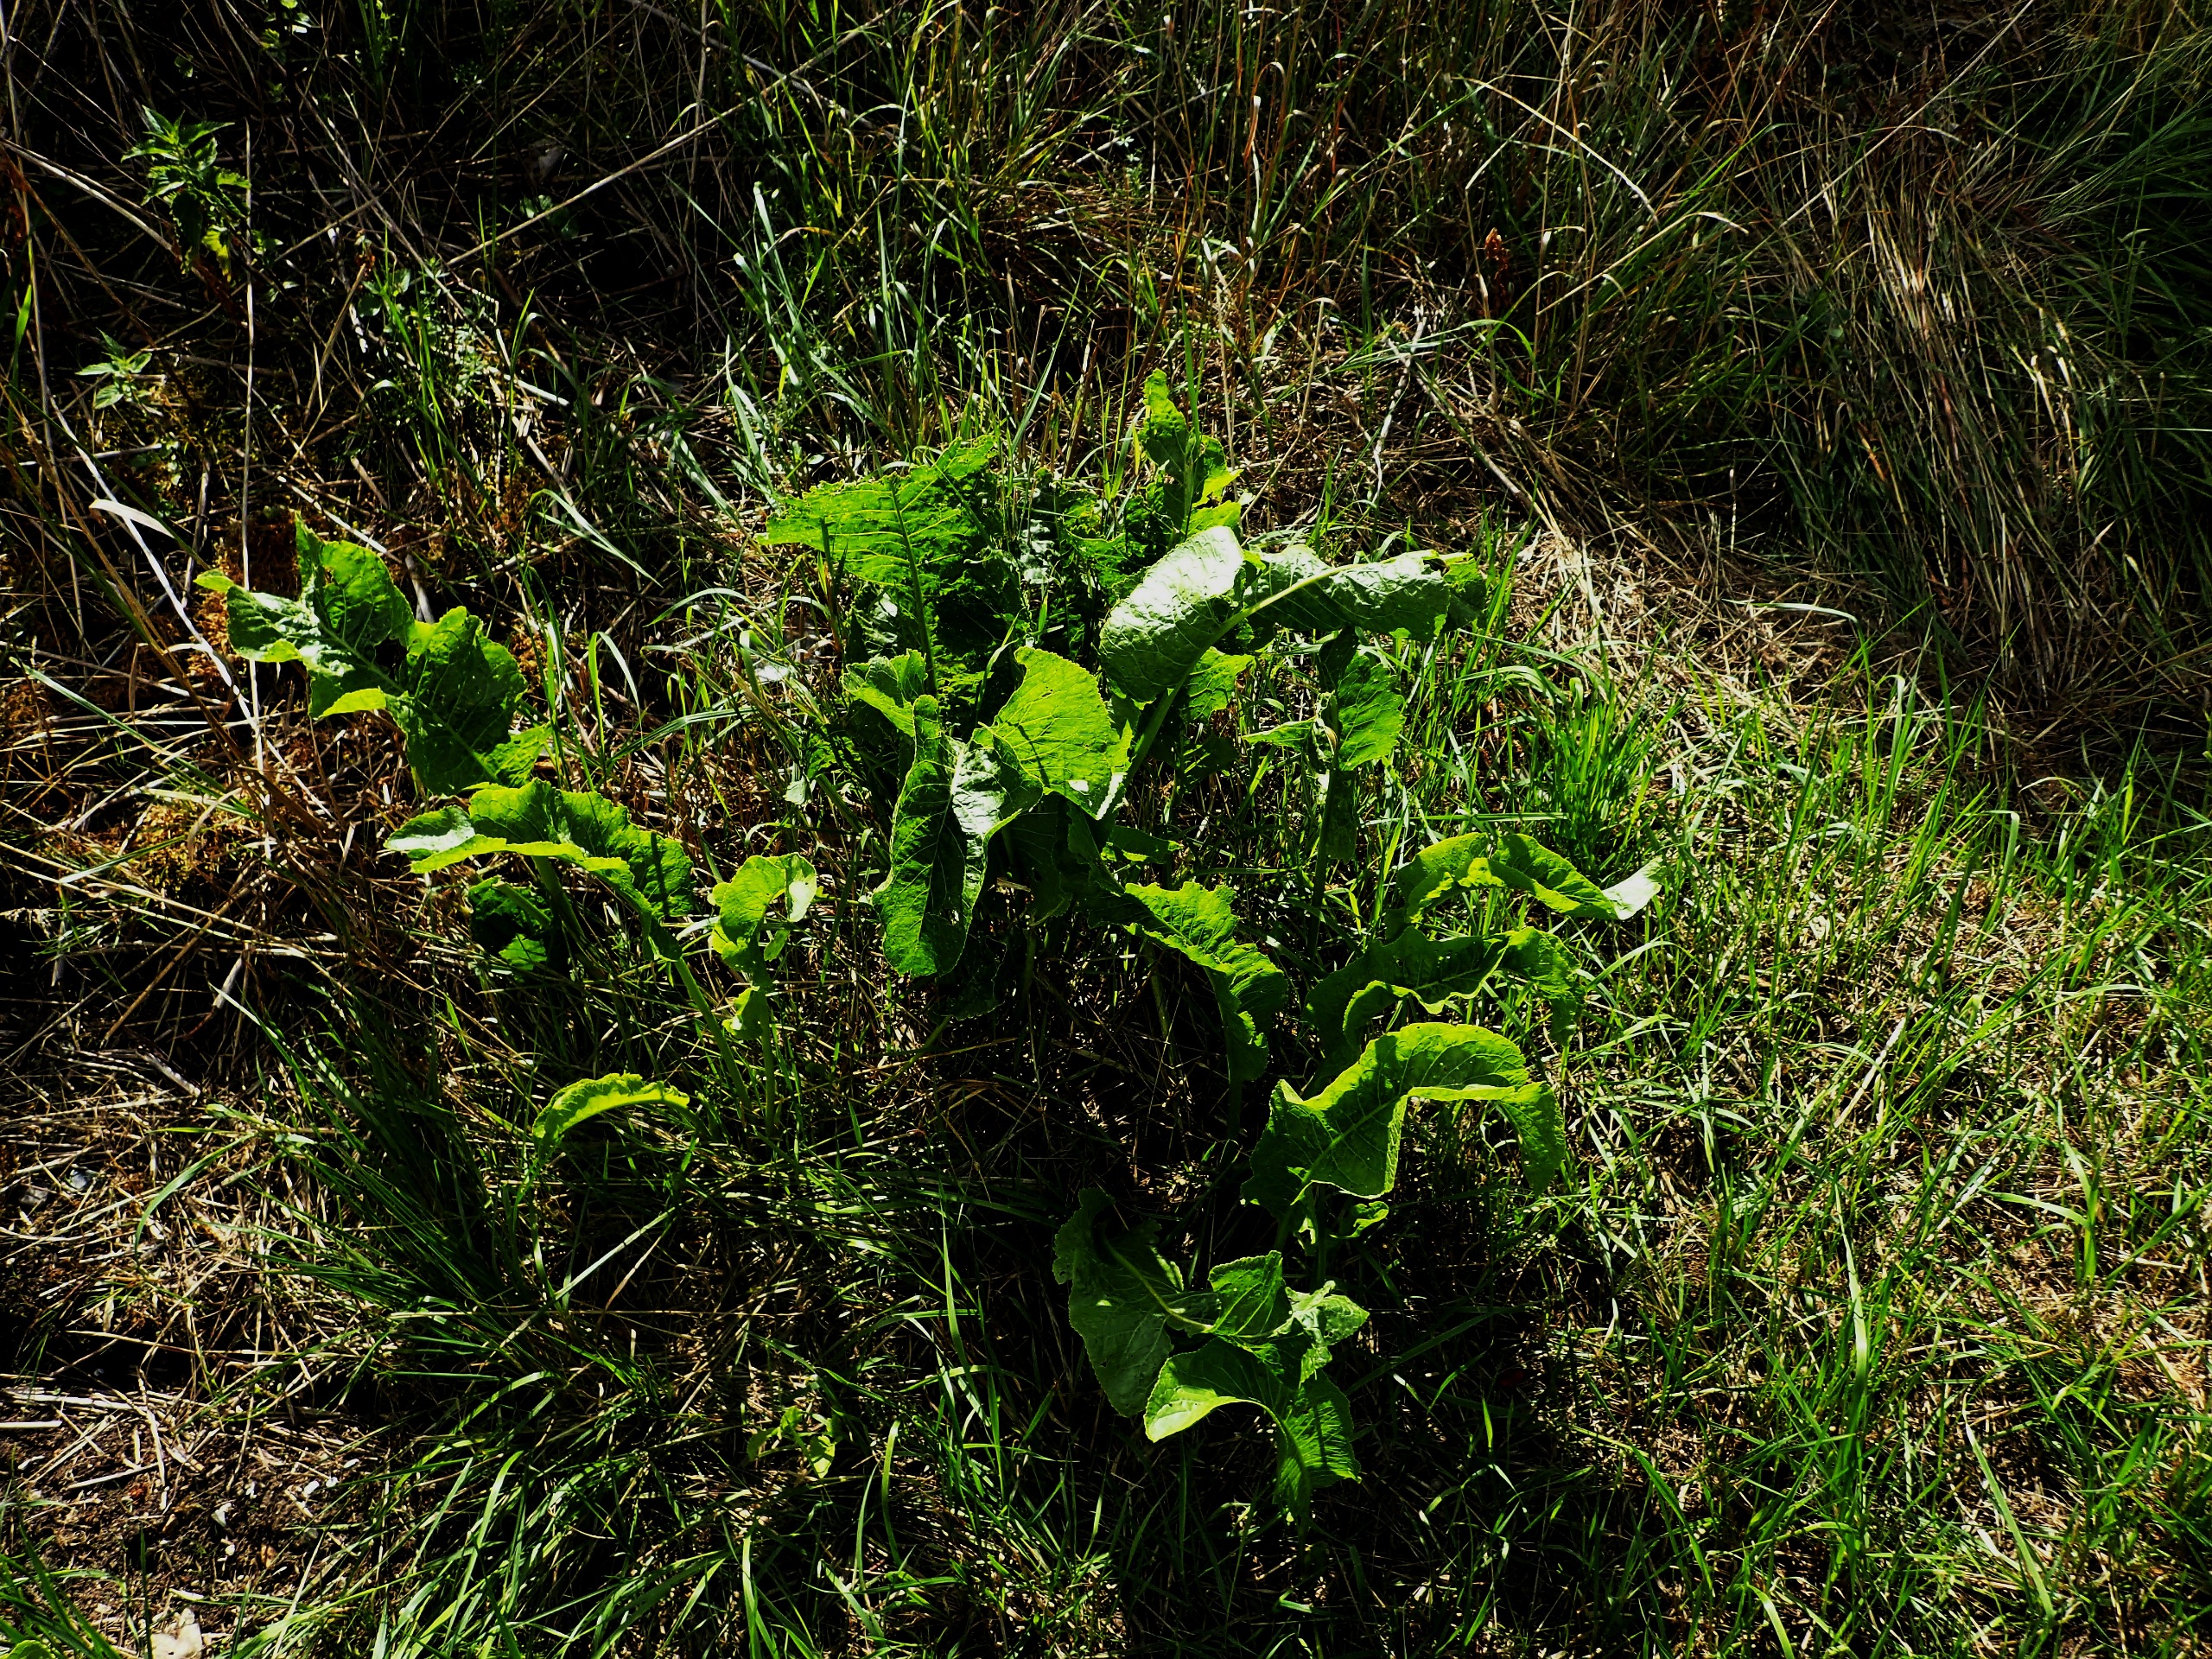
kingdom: Plantae
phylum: Tracheophyta
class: Magnoliopsida
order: Brassicales
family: Brassicaceae
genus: Armoracia
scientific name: Armoracia rusticana
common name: Peberrod
